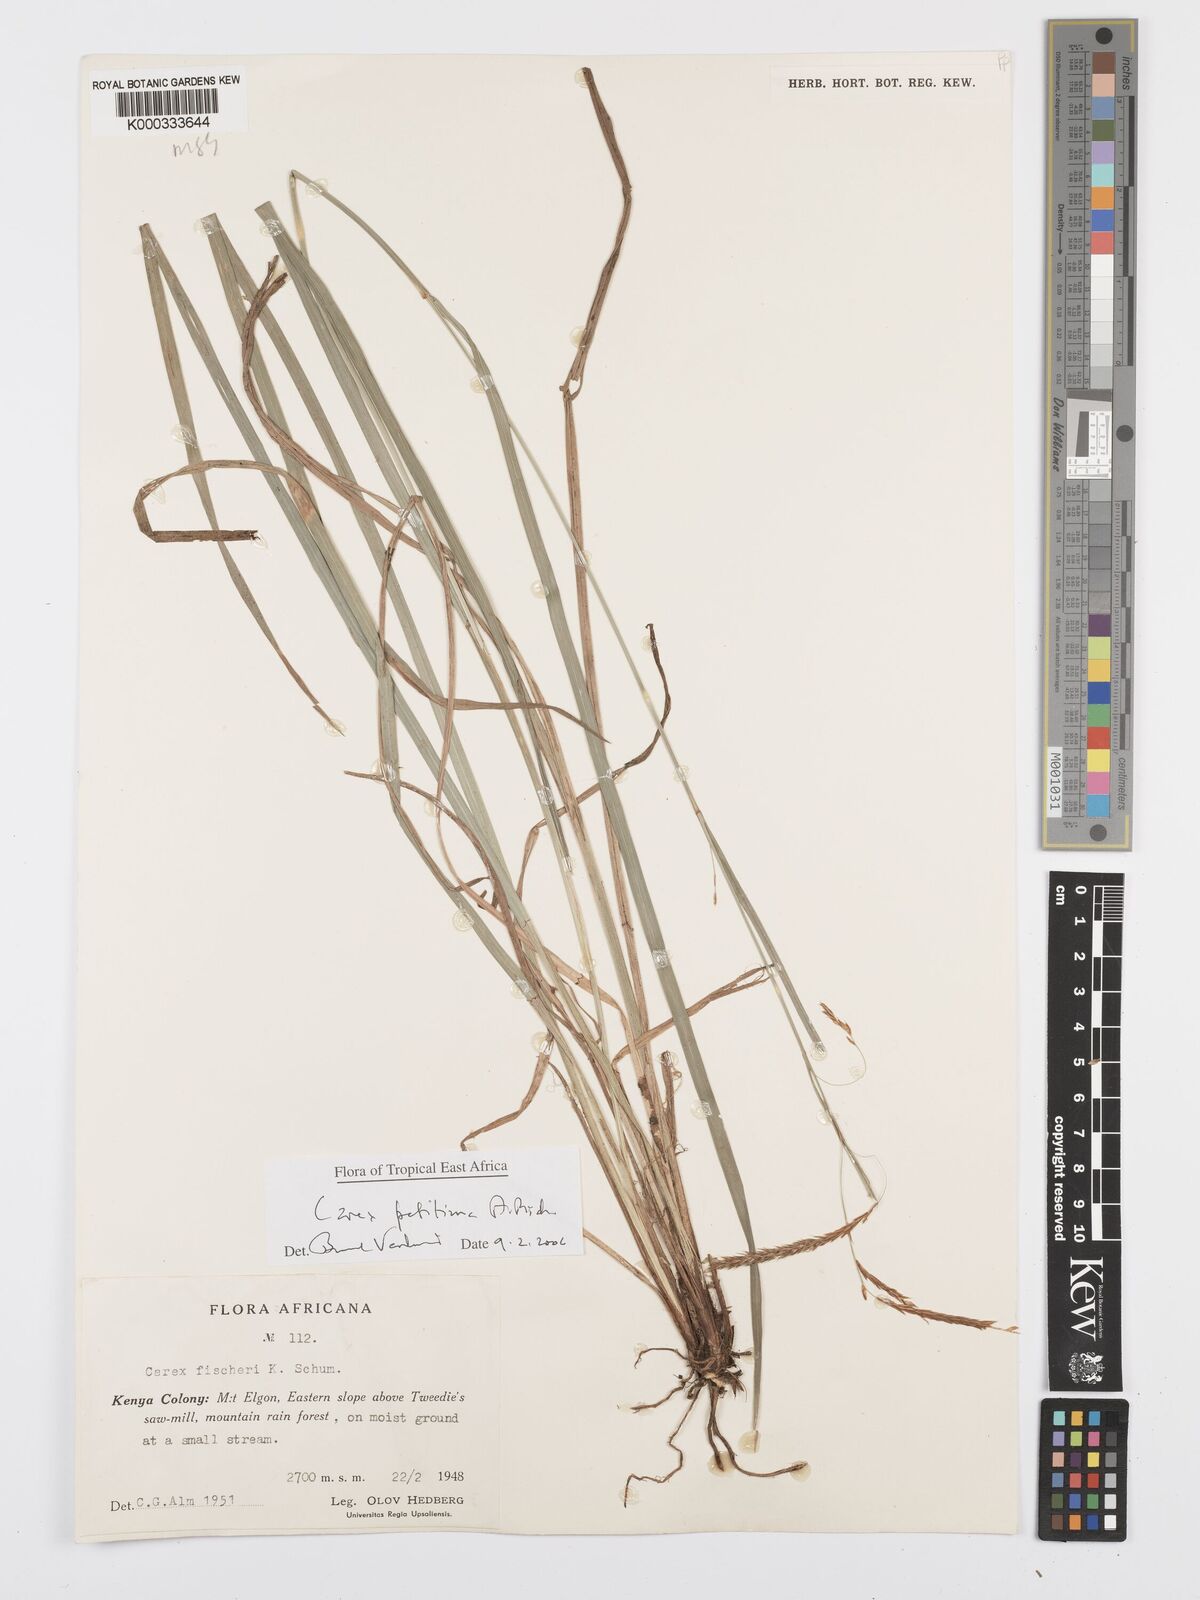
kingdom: Plantae
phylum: Tracheophyta
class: Liliopsida
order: Poales
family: Cyperaceae
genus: Carex
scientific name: Carex petitiana
